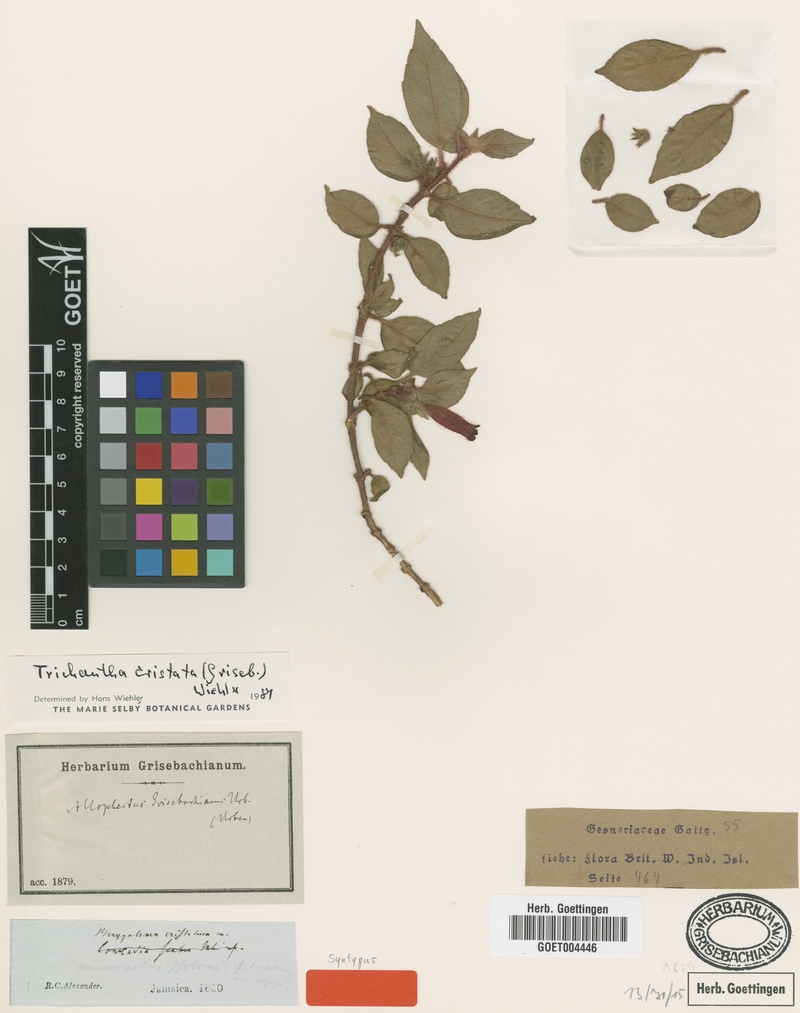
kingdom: Plantae
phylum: Tracheophyta
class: Magnoliopsida
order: Lamiales
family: Gesneriaceae
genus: Columnea
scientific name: Columnea grisebachiana
